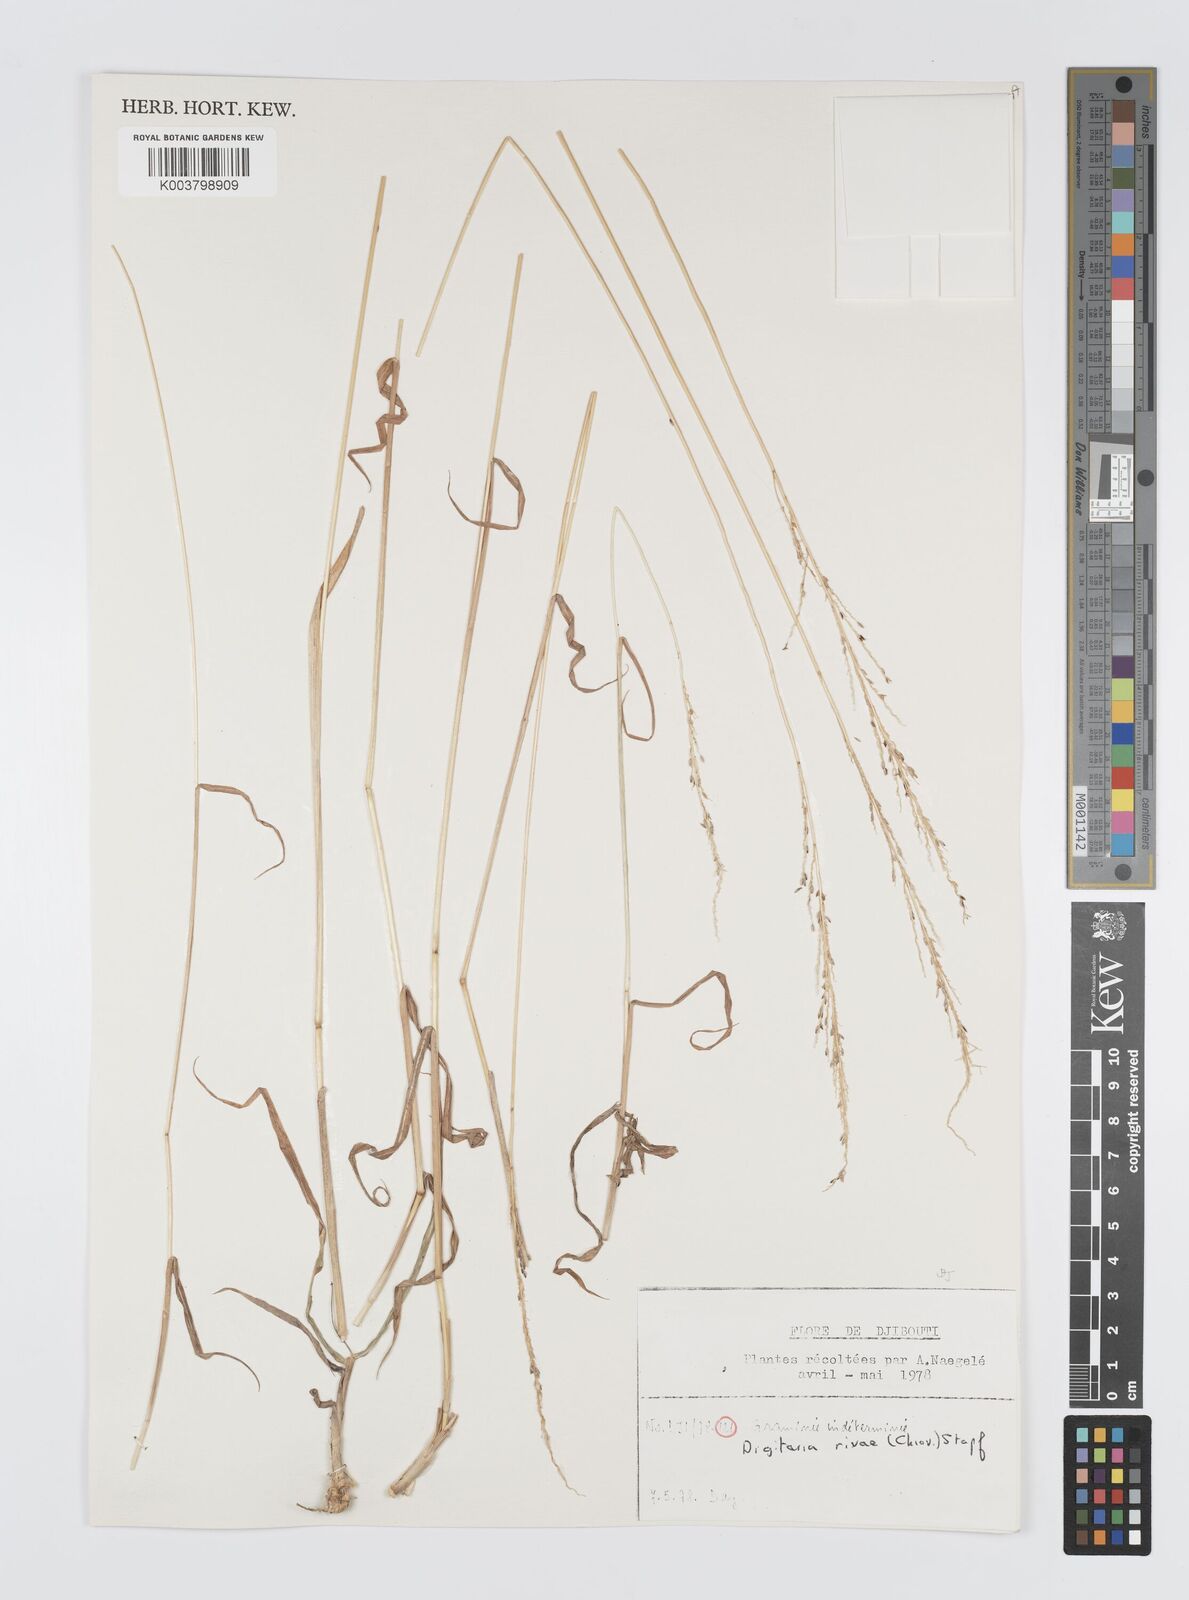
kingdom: Plantae
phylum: Tracheophyta
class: Liliopsida
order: Poales
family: Poaceae
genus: Digitaria
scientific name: Digitaria rivae
